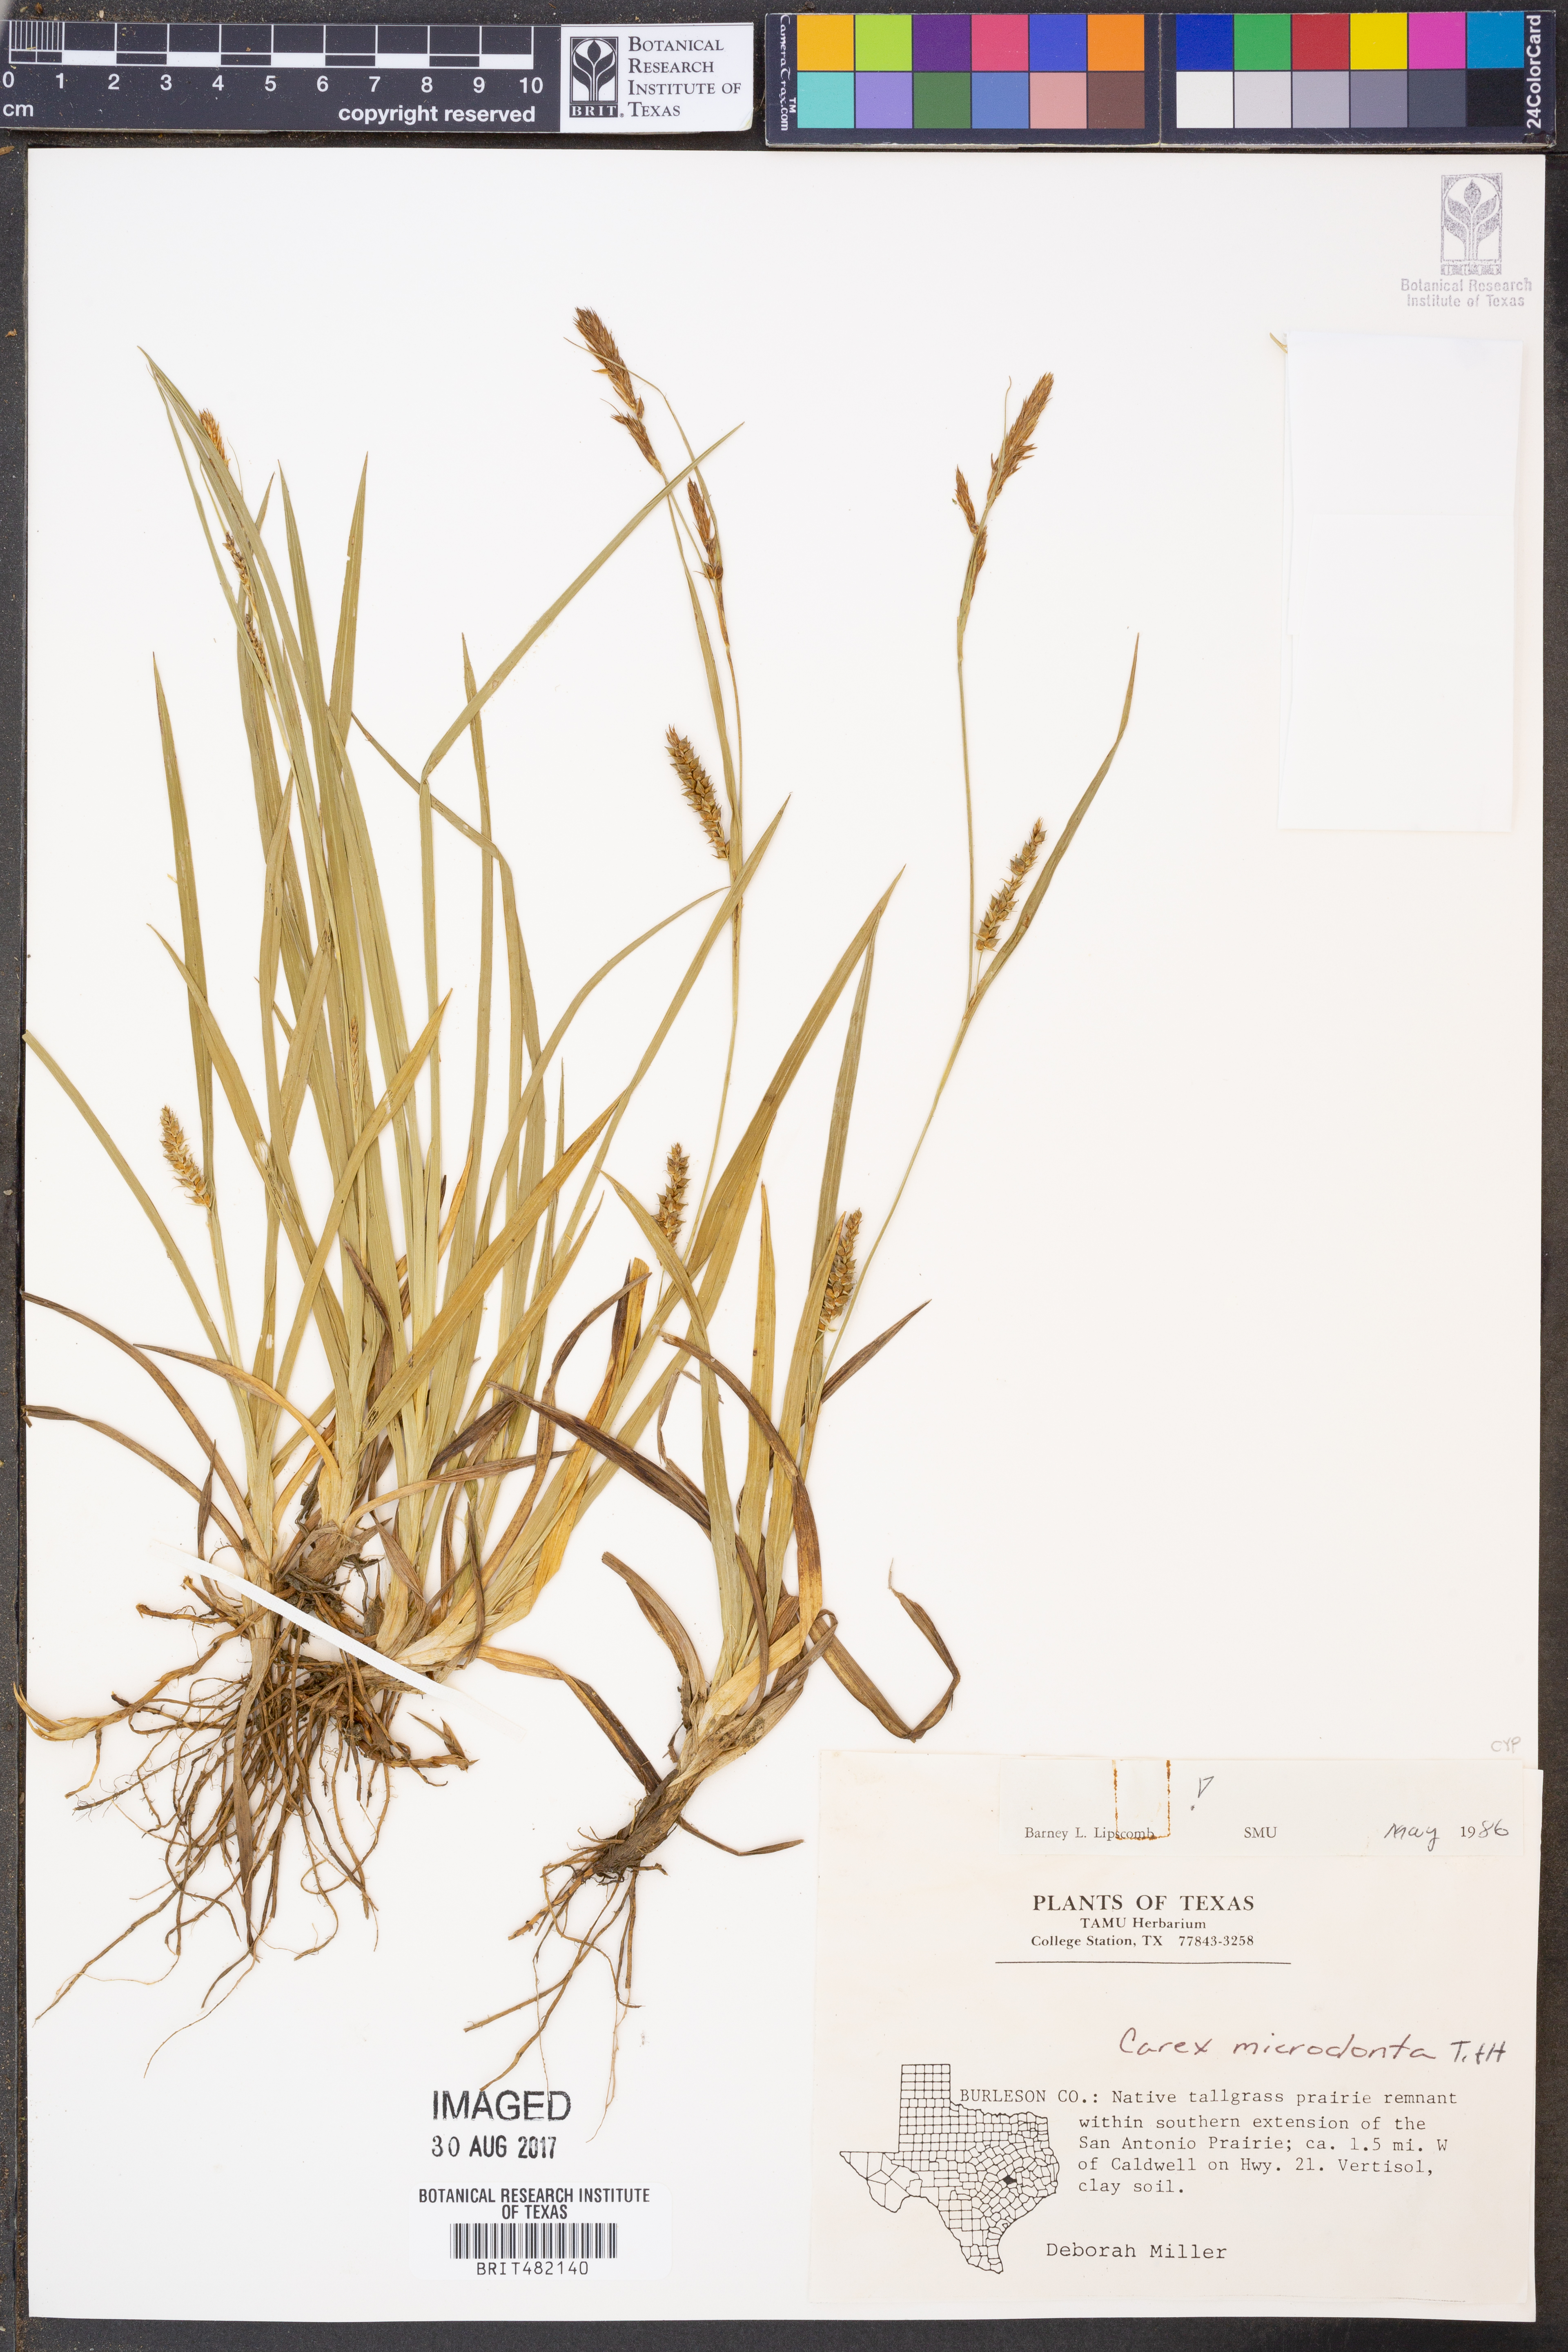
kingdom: Plantae
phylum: Tracheophyta
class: Liliopsida
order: Poales
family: Cyperaceae
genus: Carex
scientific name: Carex microdonta
